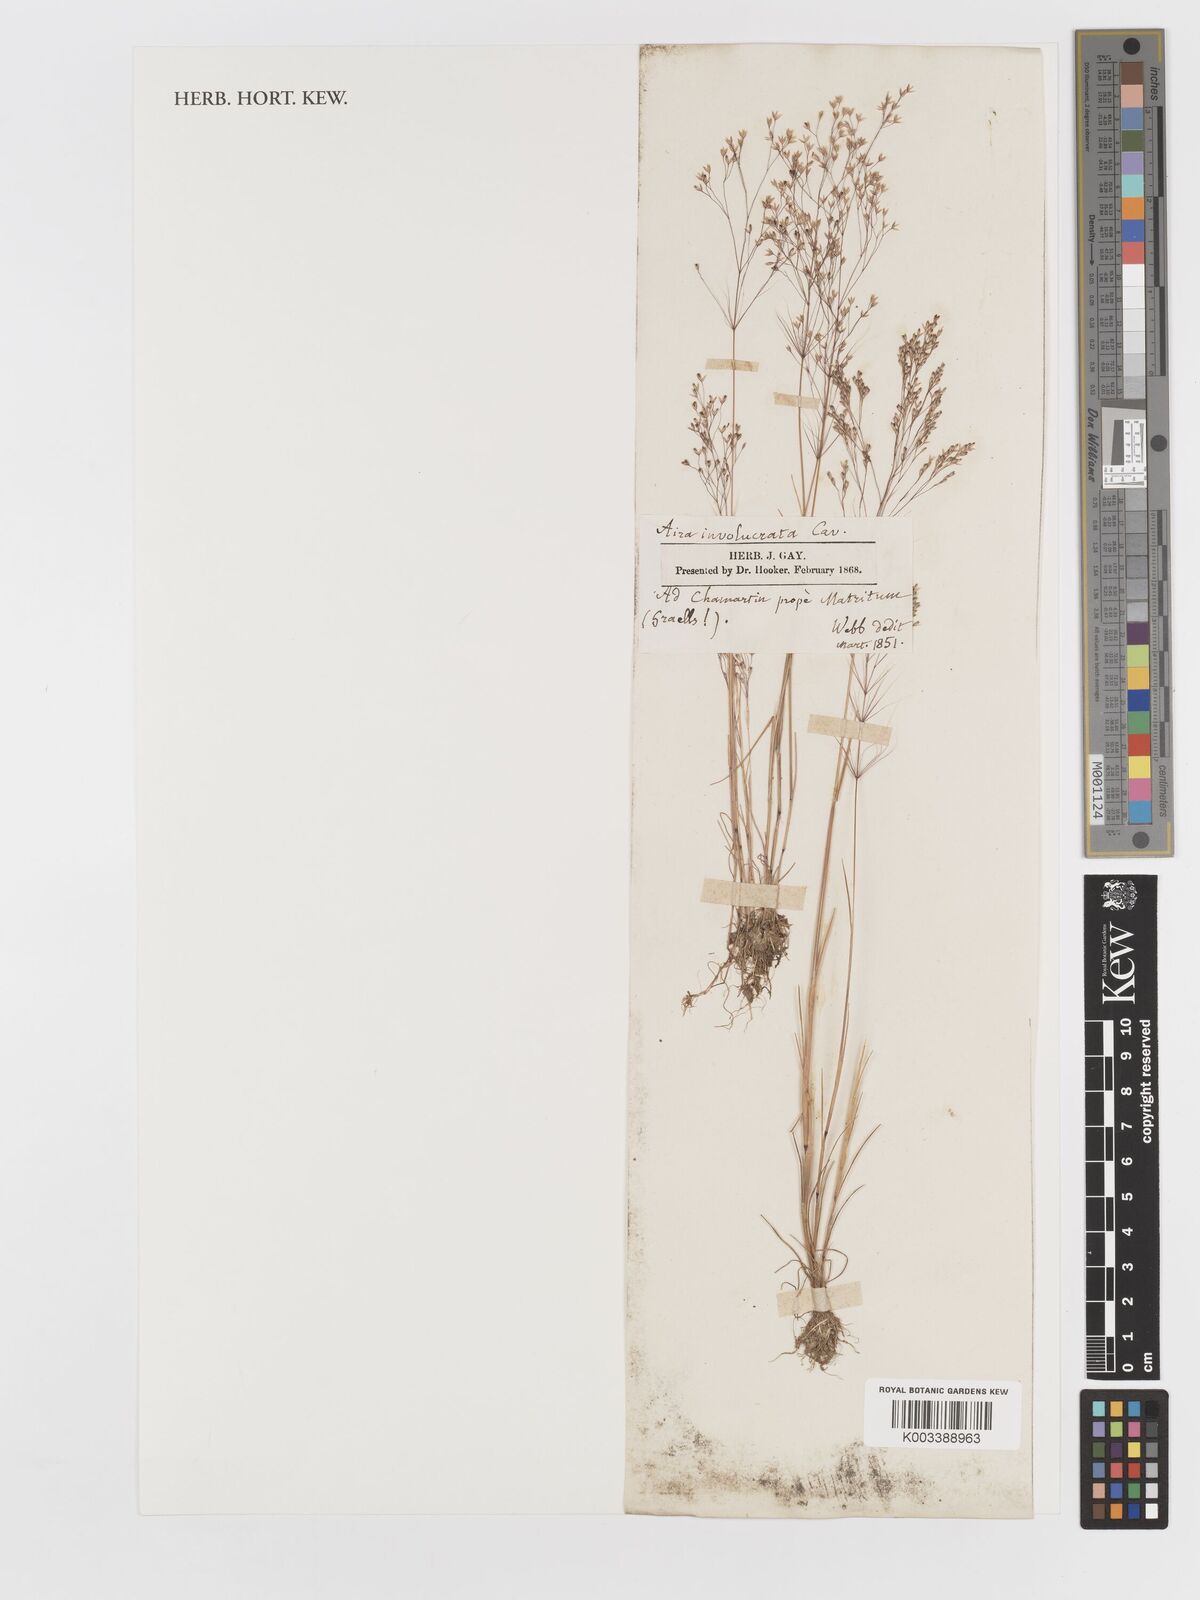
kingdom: Plantae
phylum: Tracheophyta
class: Liliopsida
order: Poales
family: Poaceae
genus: Periballia
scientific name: Periballia involucrata
